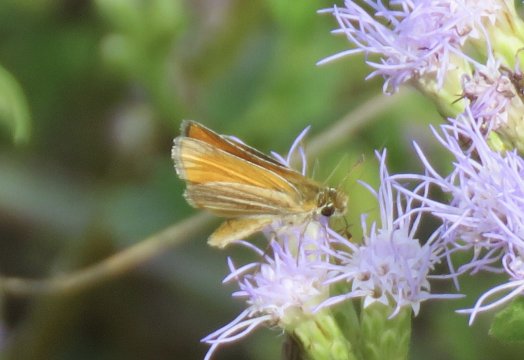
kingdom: Animalia
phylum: Arthropoda
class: Insecta
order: Lepidoptera
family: Hesperiidae
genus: Copaeodes
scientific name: Copaeodes minima
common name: Southern Skipperling
